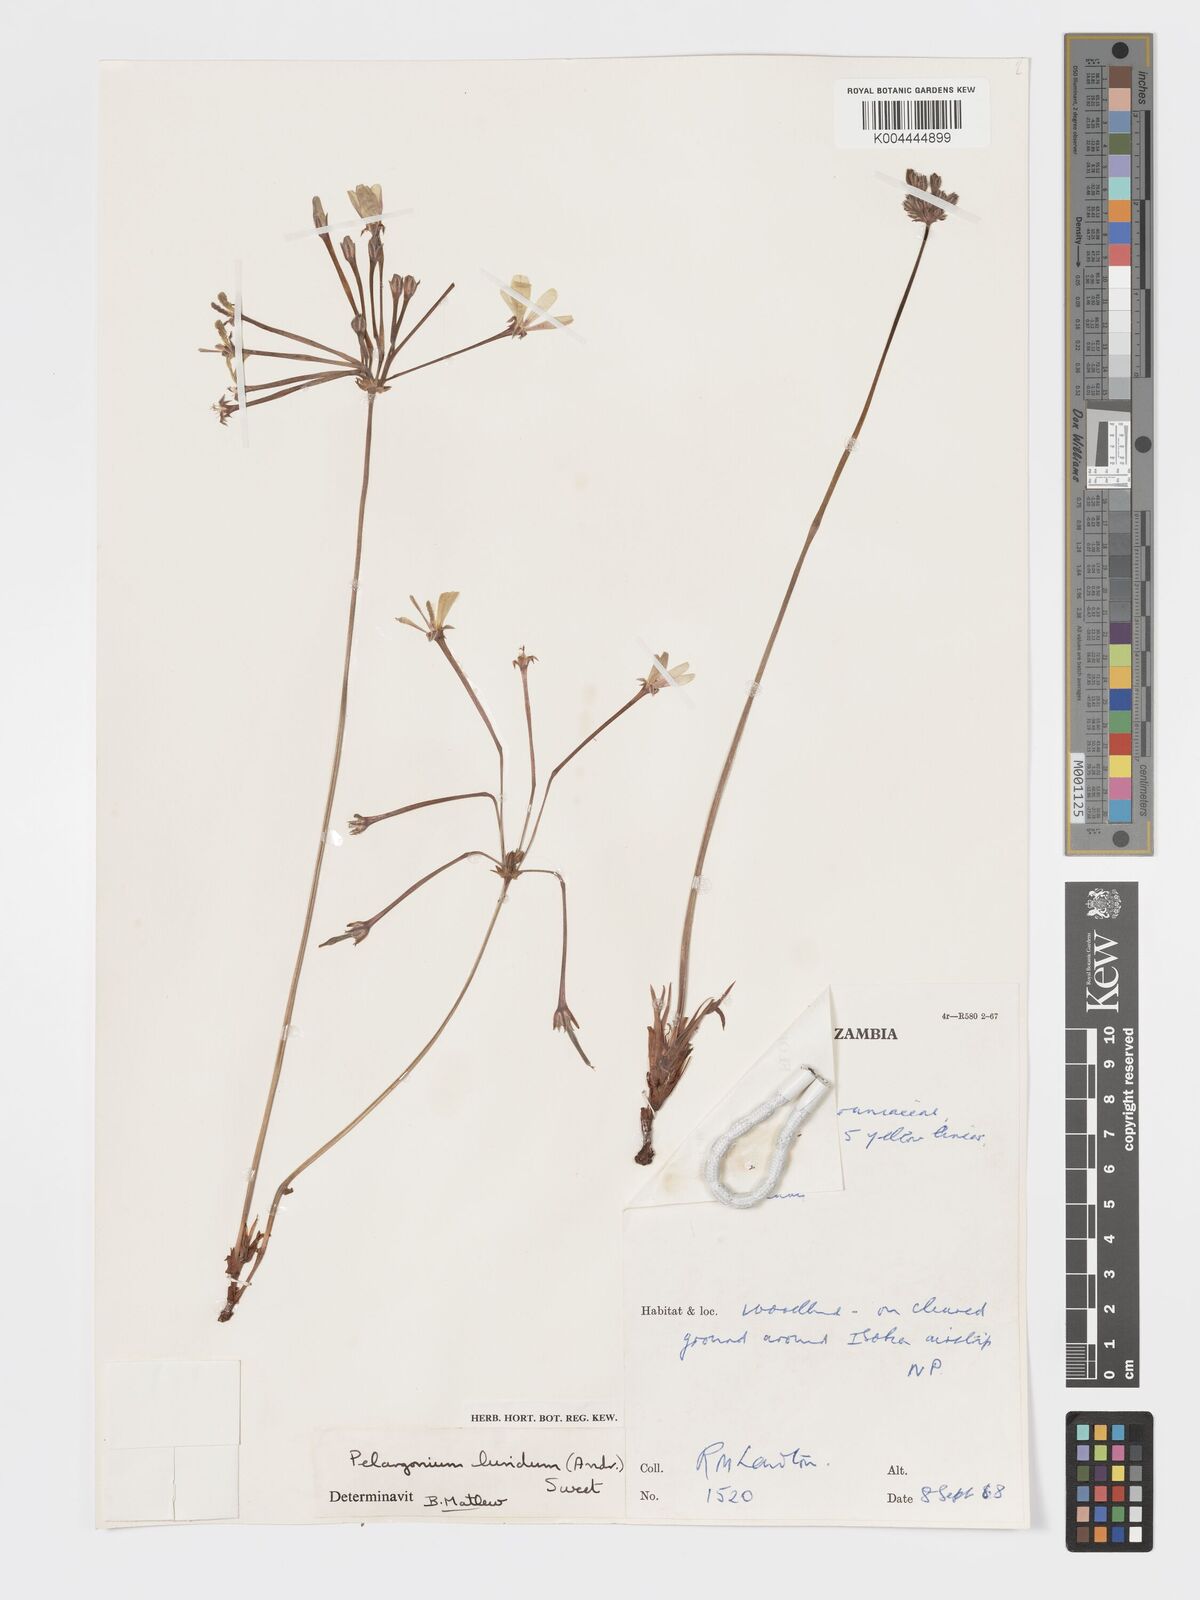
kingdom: Plantae
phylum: Tracheophyta
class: Magnoliopsida
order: Geraniales
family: Geraniaceae
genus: Pelargonium
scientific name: Pelargonium luridum
